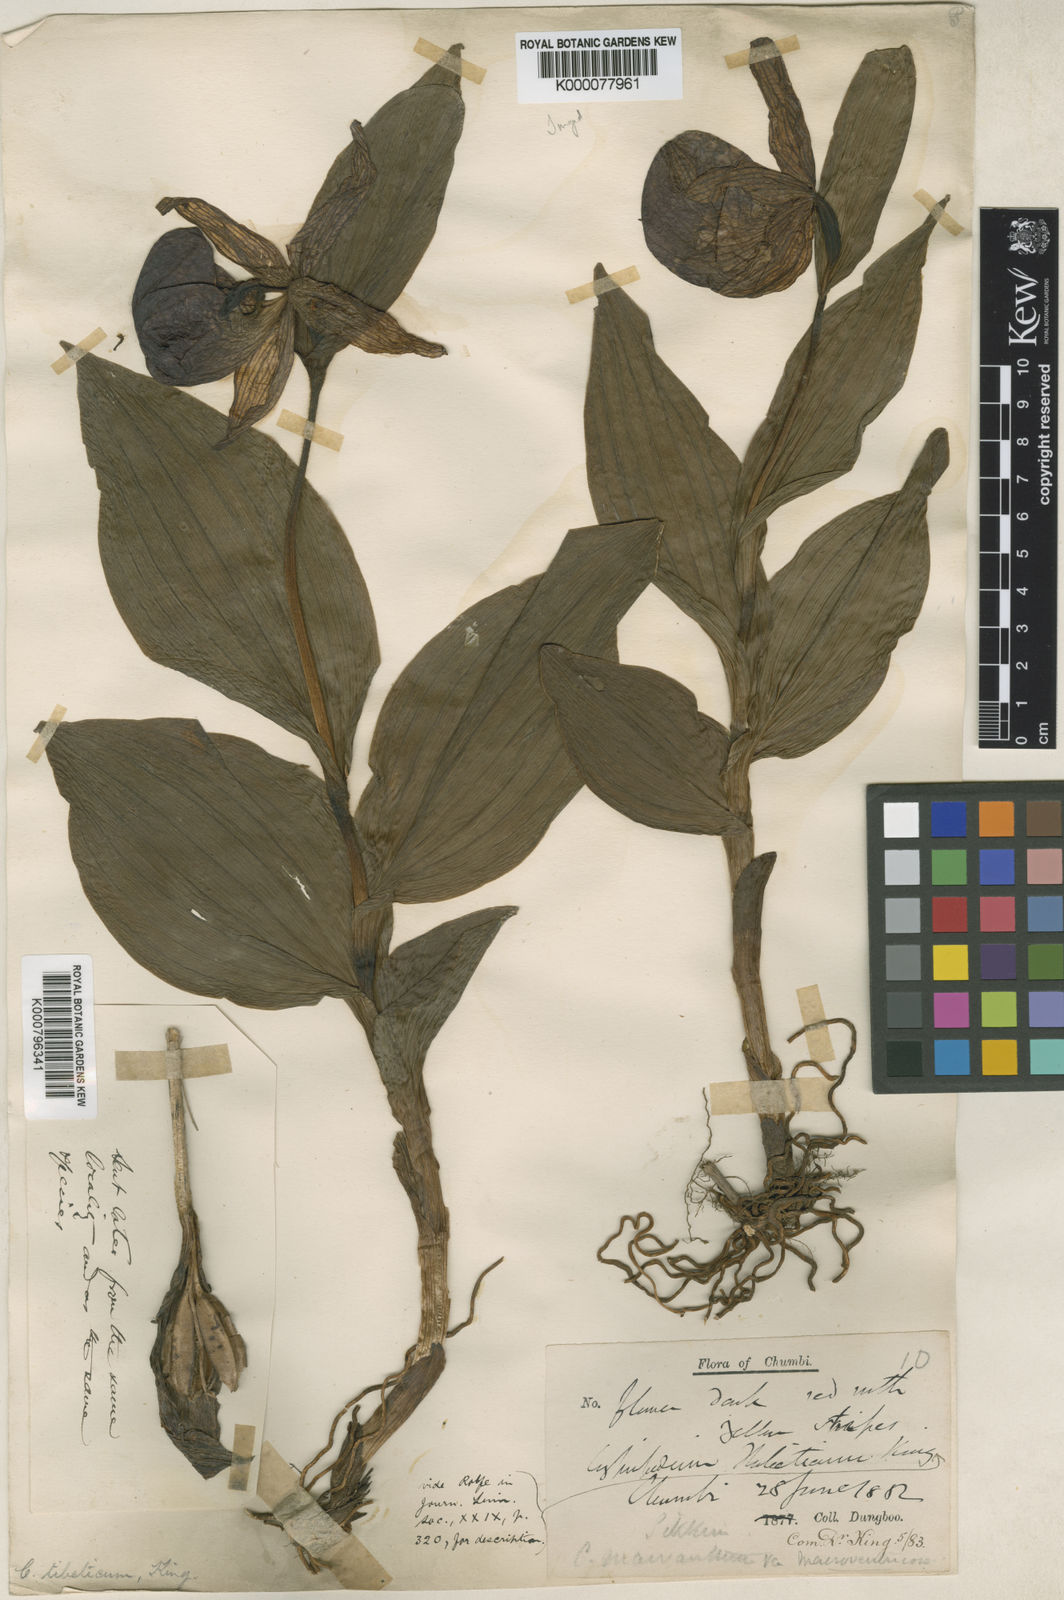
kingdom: Plantae
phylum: Tracheophyta
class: Liliopsida
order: Asparagales
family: Orchidaceae
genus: Cypripedium
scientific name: Cypripedium tibeticum
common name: Tibetan cypripedium
